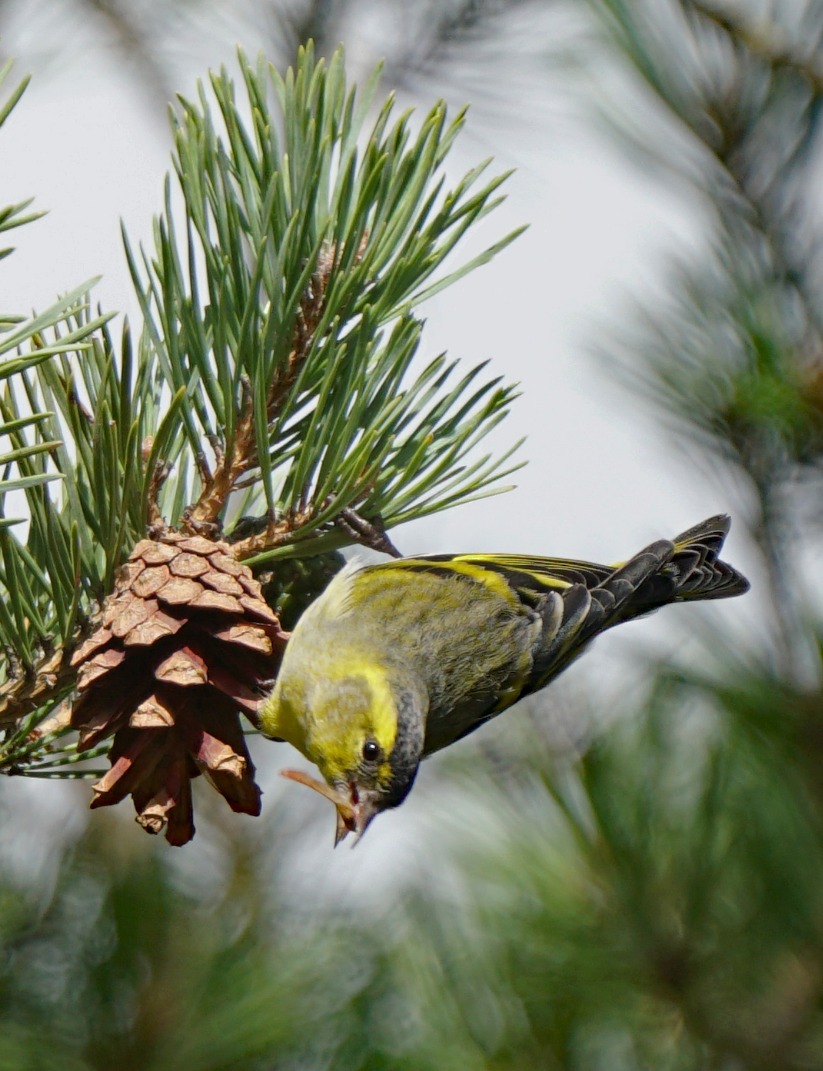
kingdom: Animalia
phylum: Chordata
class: Aves
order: Passeriformes
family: Fringillidae
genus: Spinus
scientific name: Spinus spinus
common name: Grønsisken
